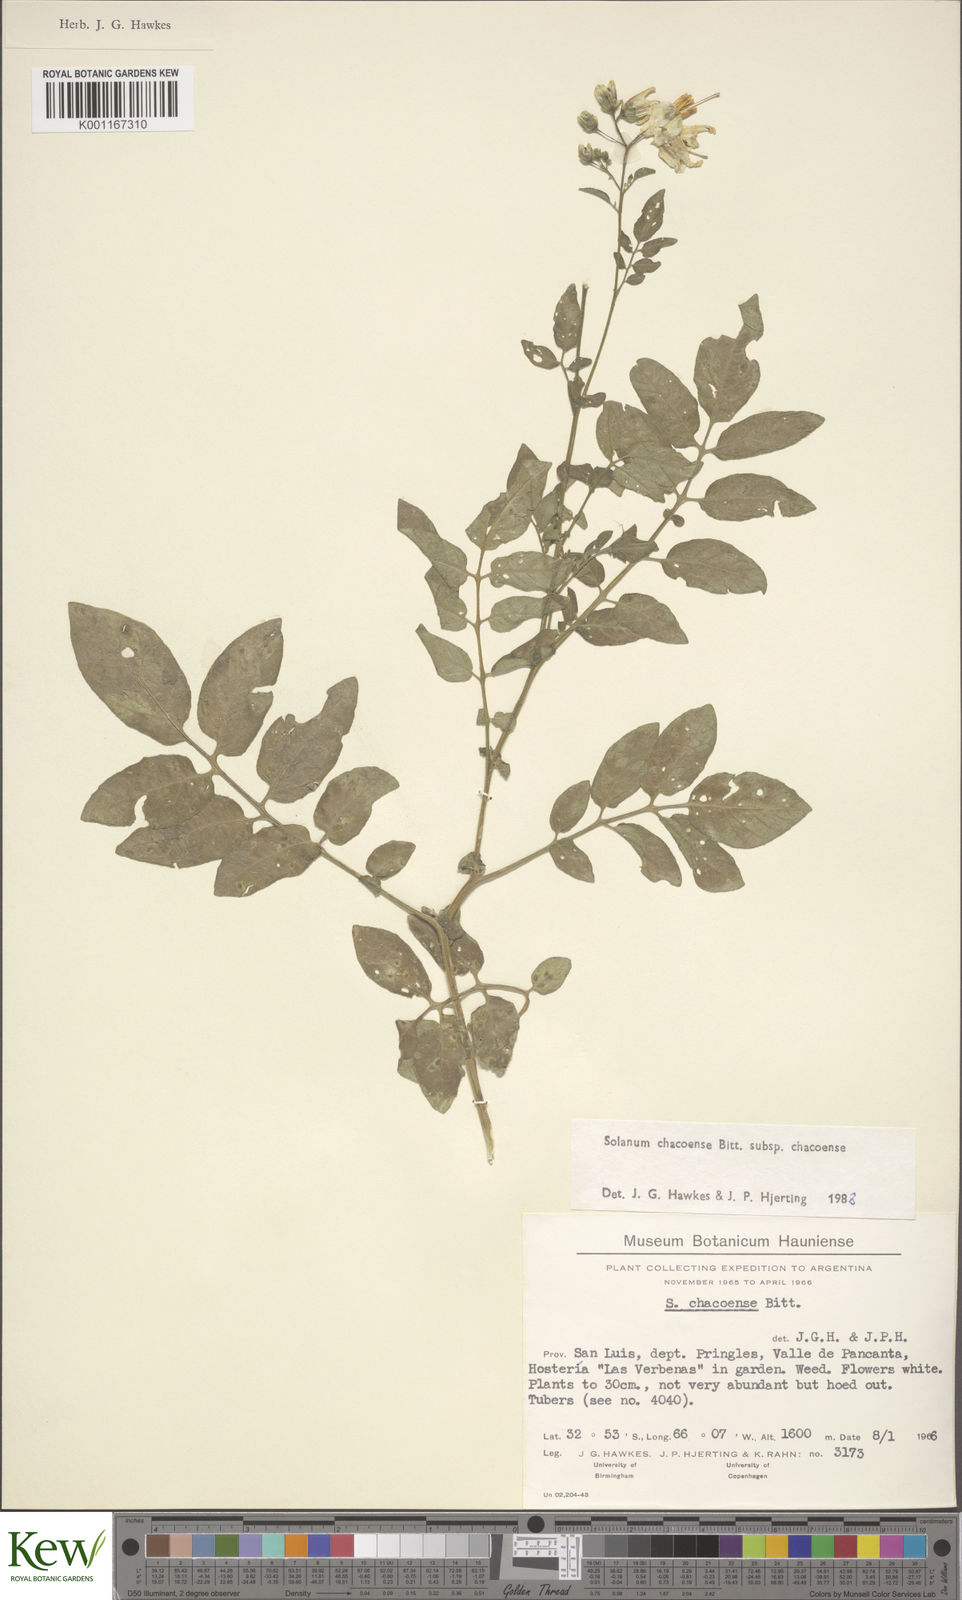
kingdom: Plantae
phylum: Tracheophyta
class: Magnoliopsida
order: Solanales
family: Solanaceae
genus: Solanum
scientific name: Solanum chacoense
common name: Chaco potato
